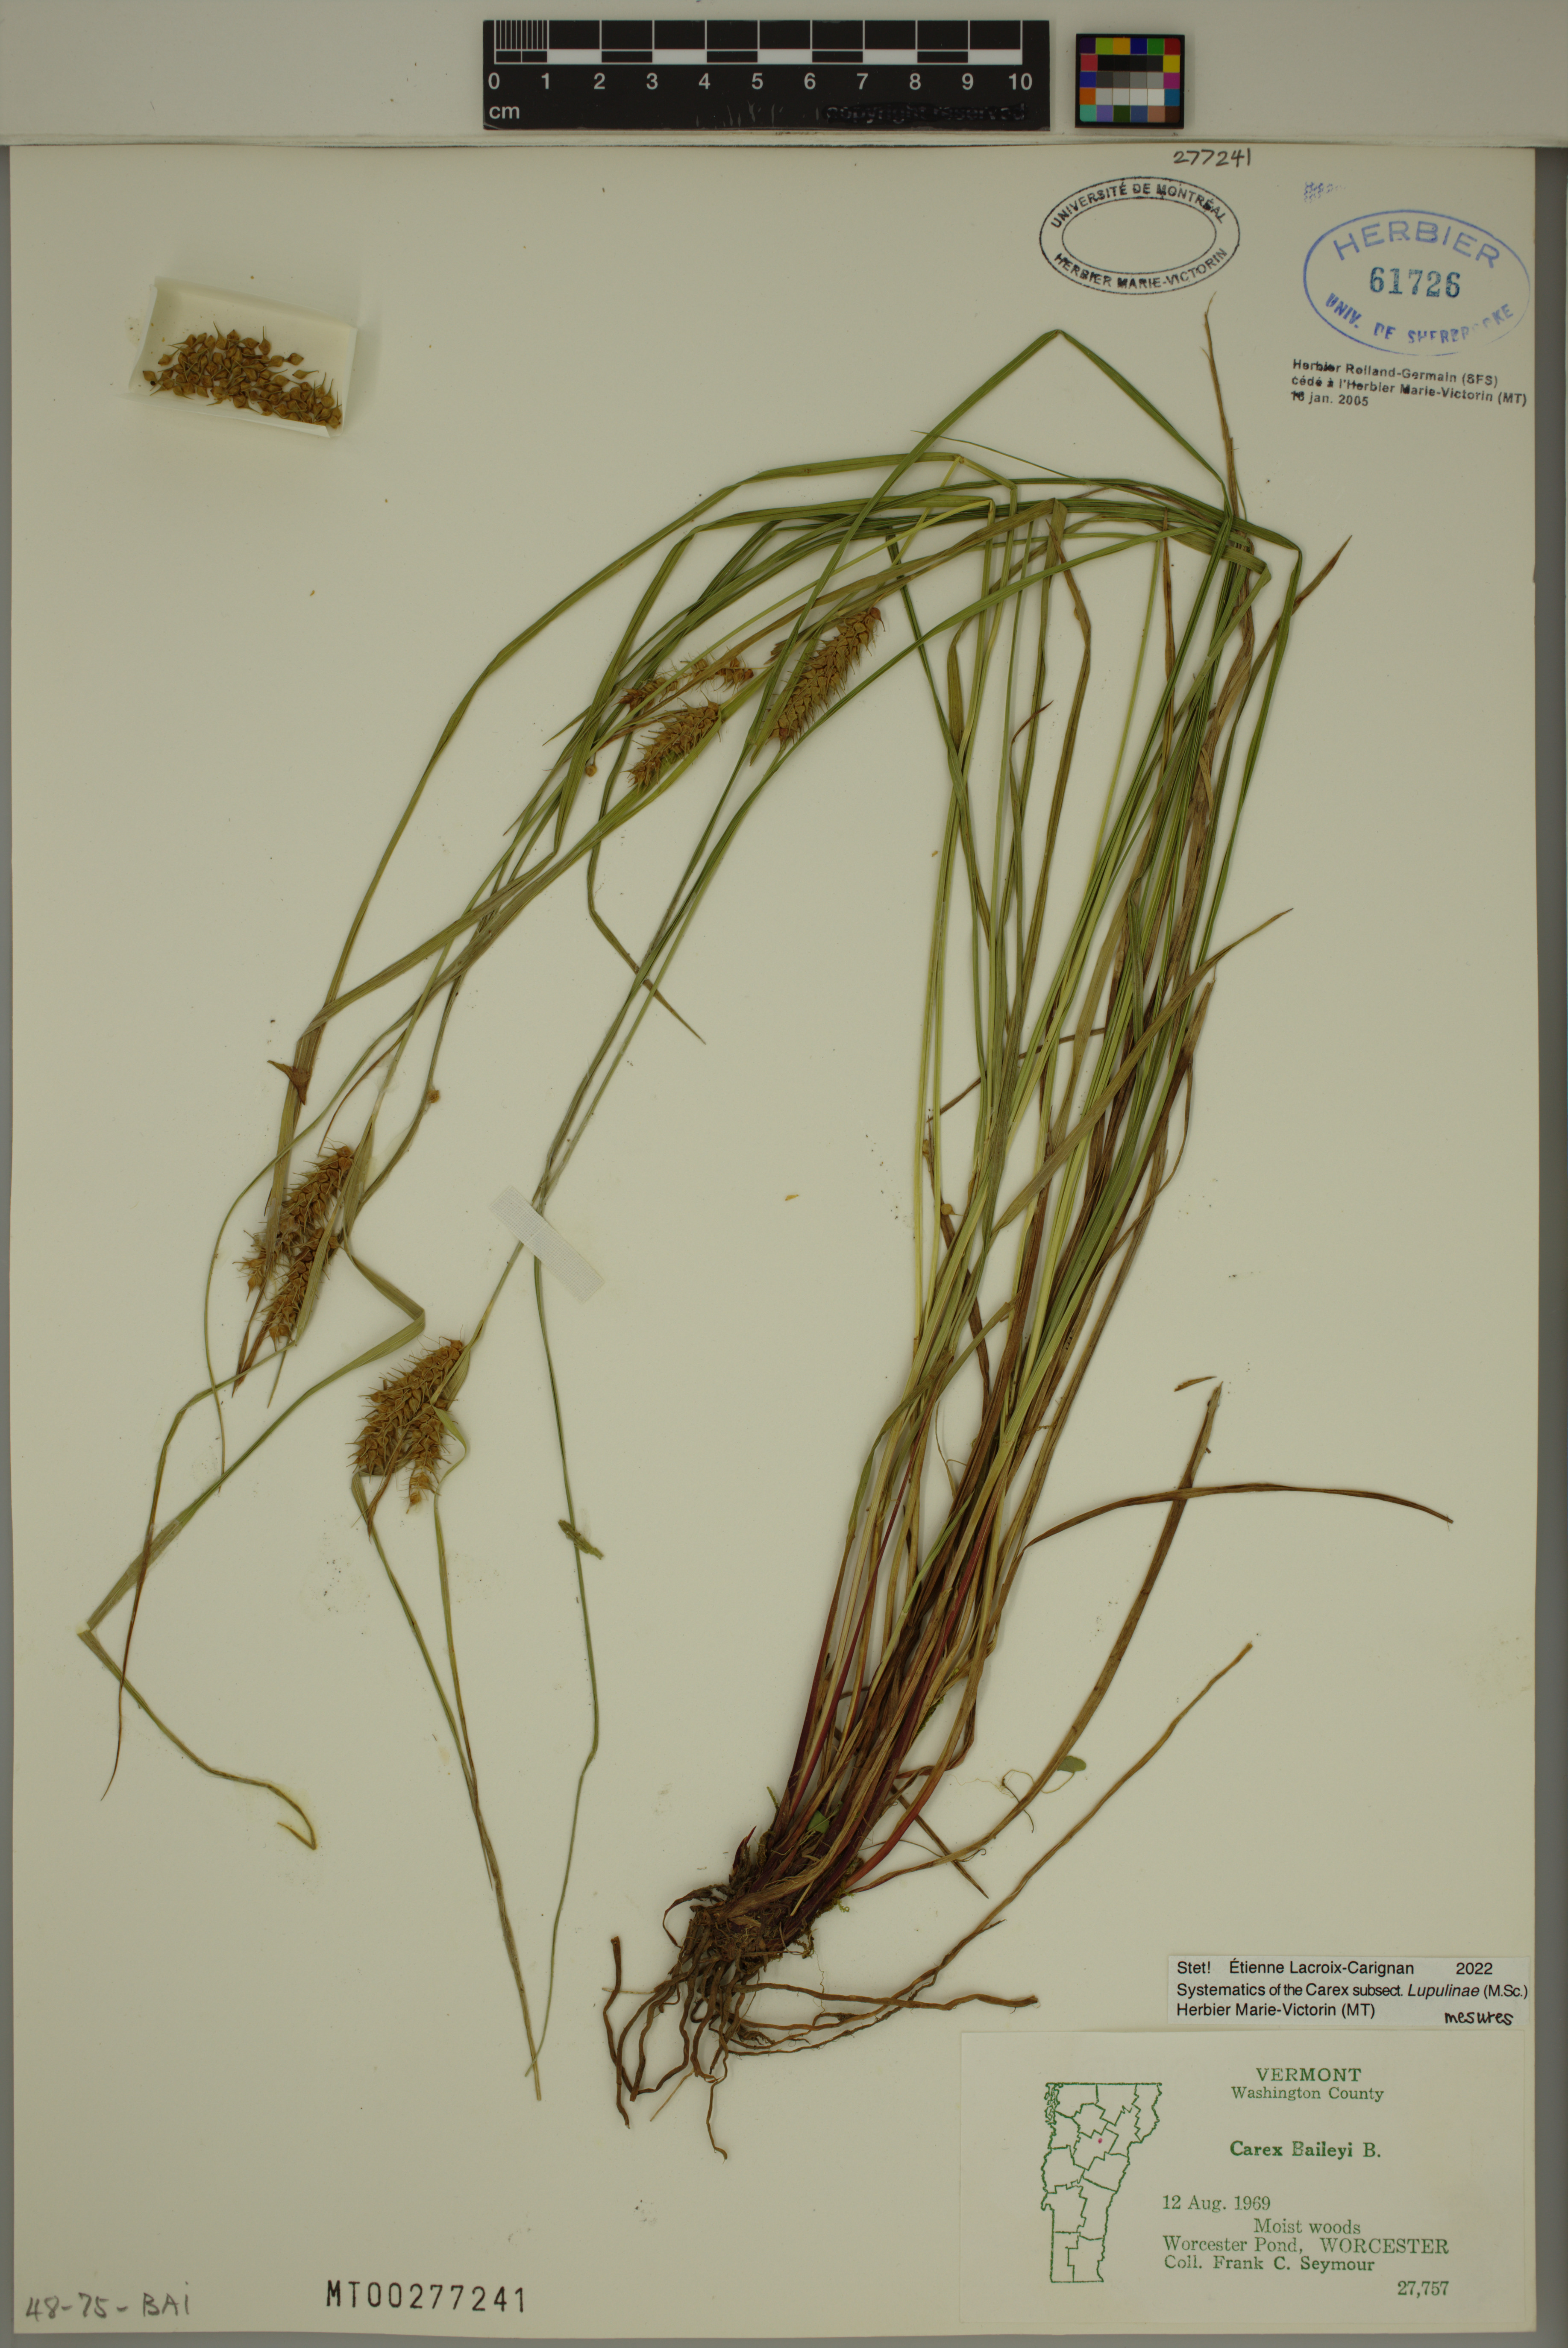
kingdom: Plantae
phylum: Tracheophyta
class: Liliopsida
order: Poales
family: Cyperaceae
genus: Carex
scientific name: Carex baileyi
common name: Bailey's sedge
